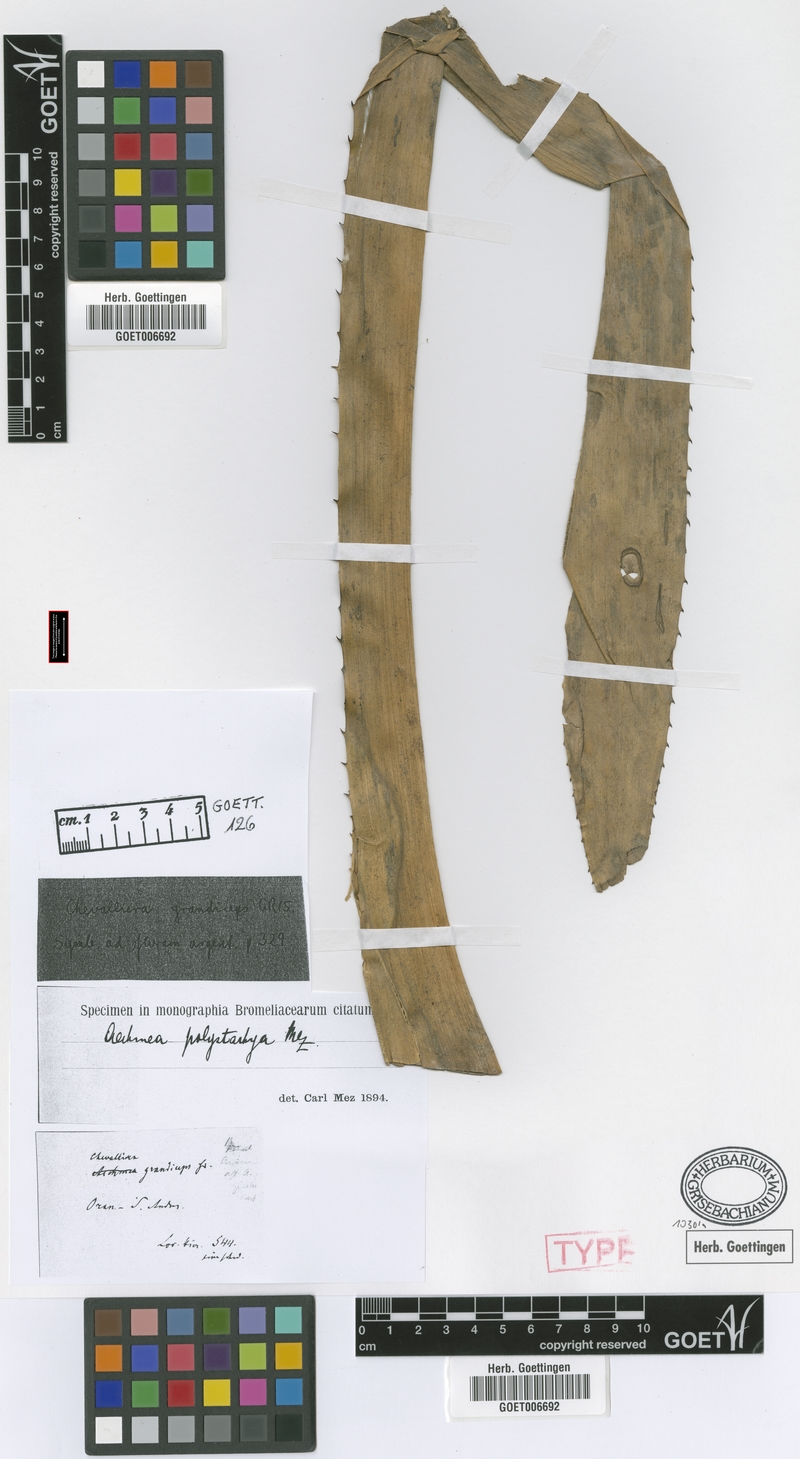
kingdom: Plantae
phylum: Tracheophyta
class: Liliopsida
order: Poales
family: Bromeliaceae
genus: Aechmea
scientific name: Aechmea distichantha
